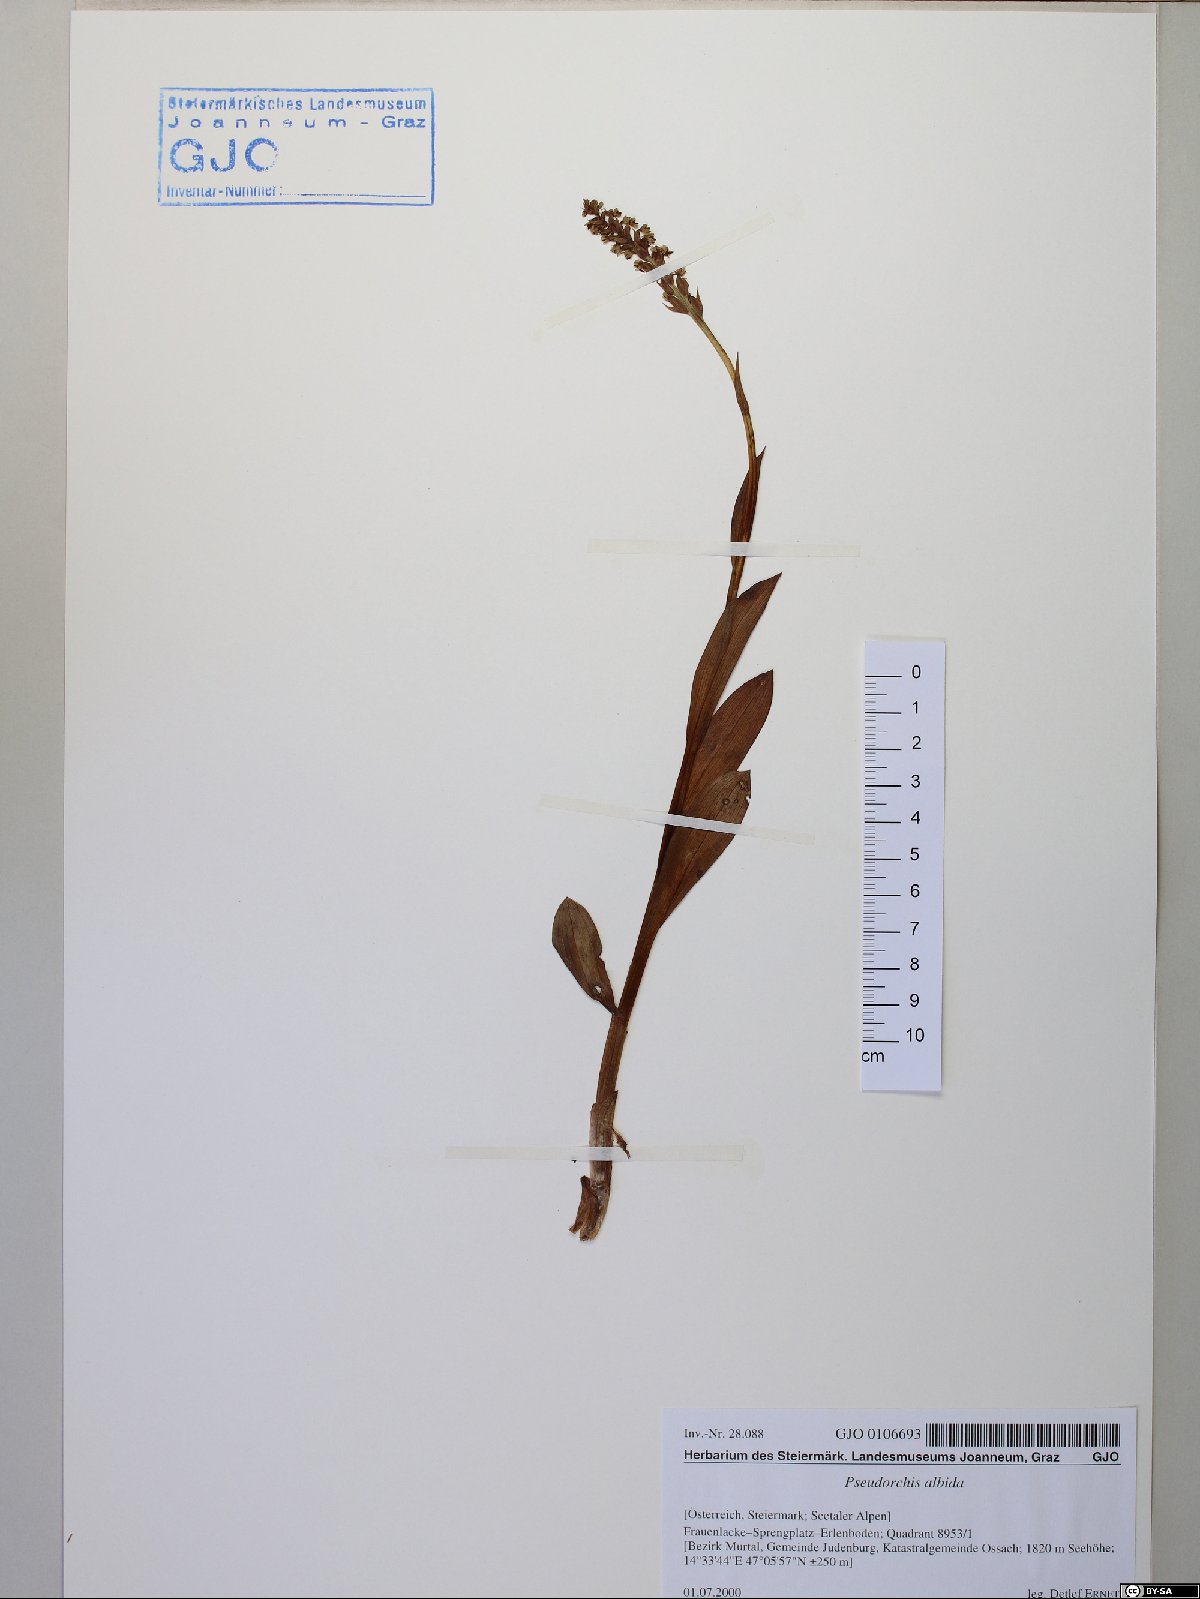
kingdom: Plantae
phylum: Tracheophyta
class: Liliopsida
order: Asparagales
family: Orchidaceae
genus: Pseudorchis
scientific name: Pseudorchis albida
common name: Small-white orchid
